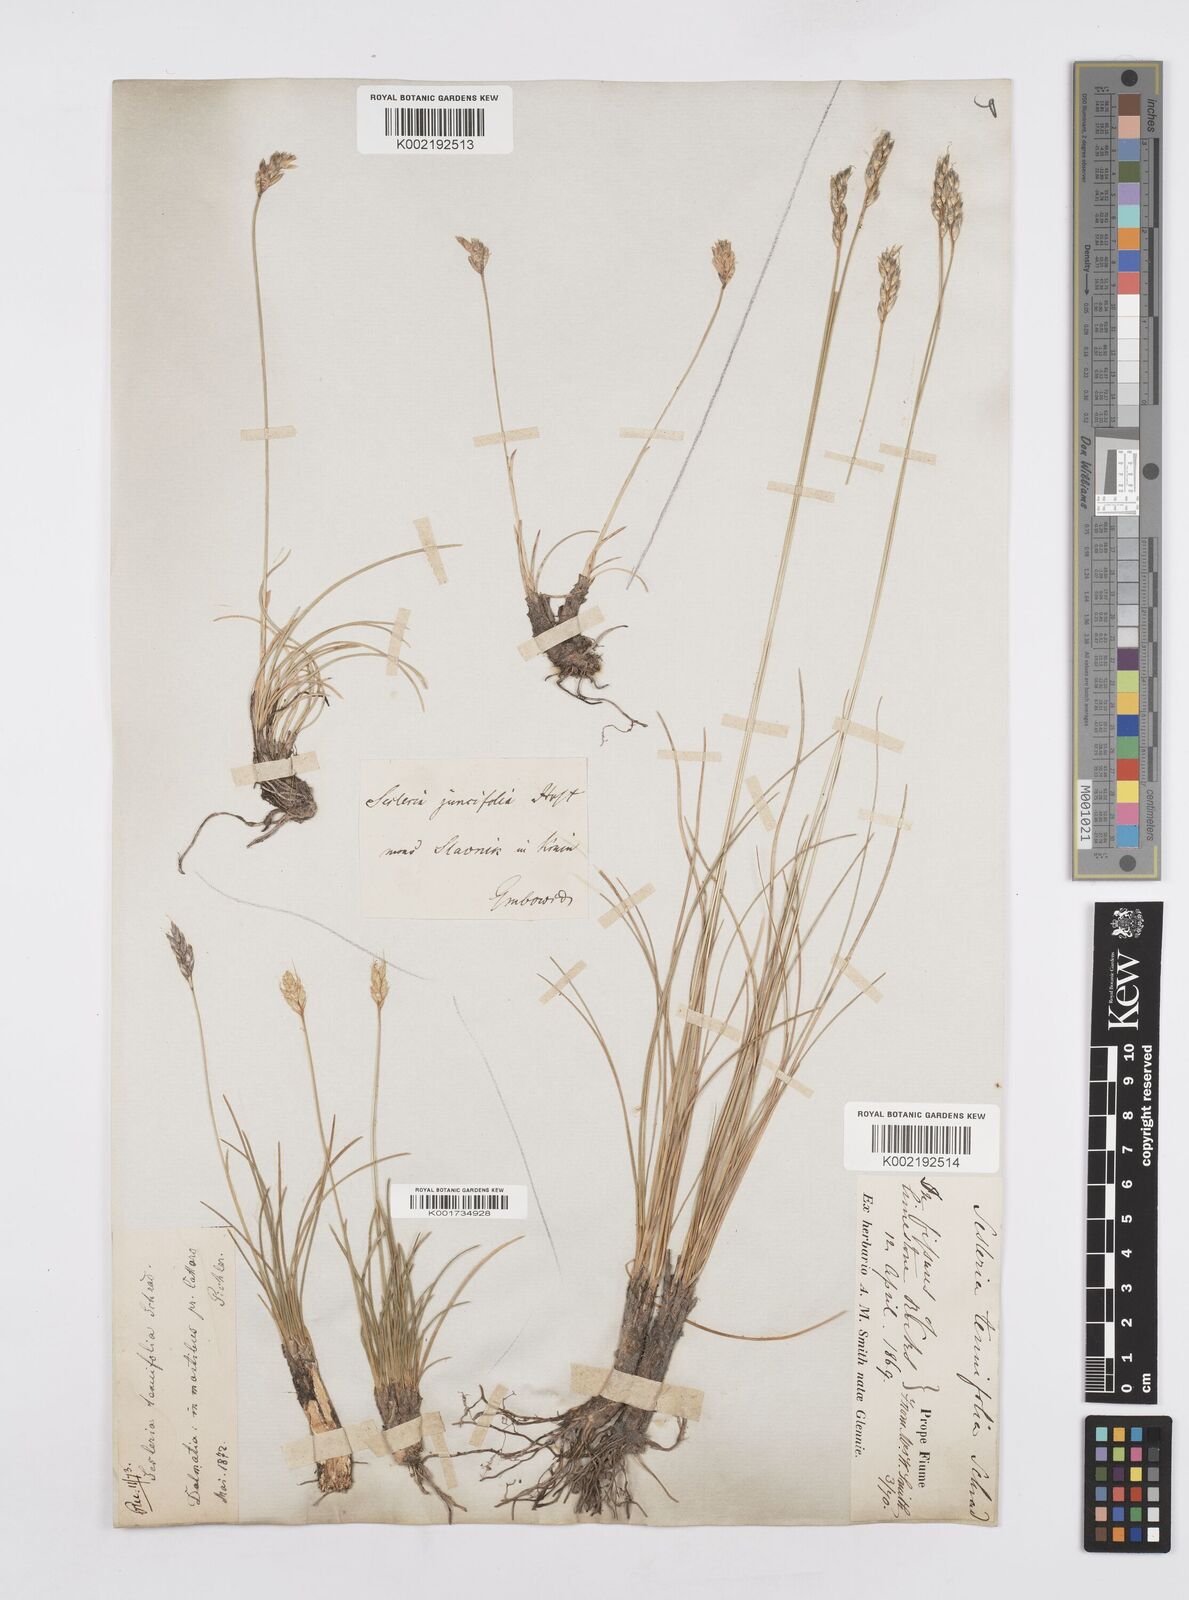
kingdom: Plantae
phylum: Tracheophyta
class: Liliopsida
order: Poales
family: Poaceae
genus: Sesleria
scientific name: Sesleria juncifolia
